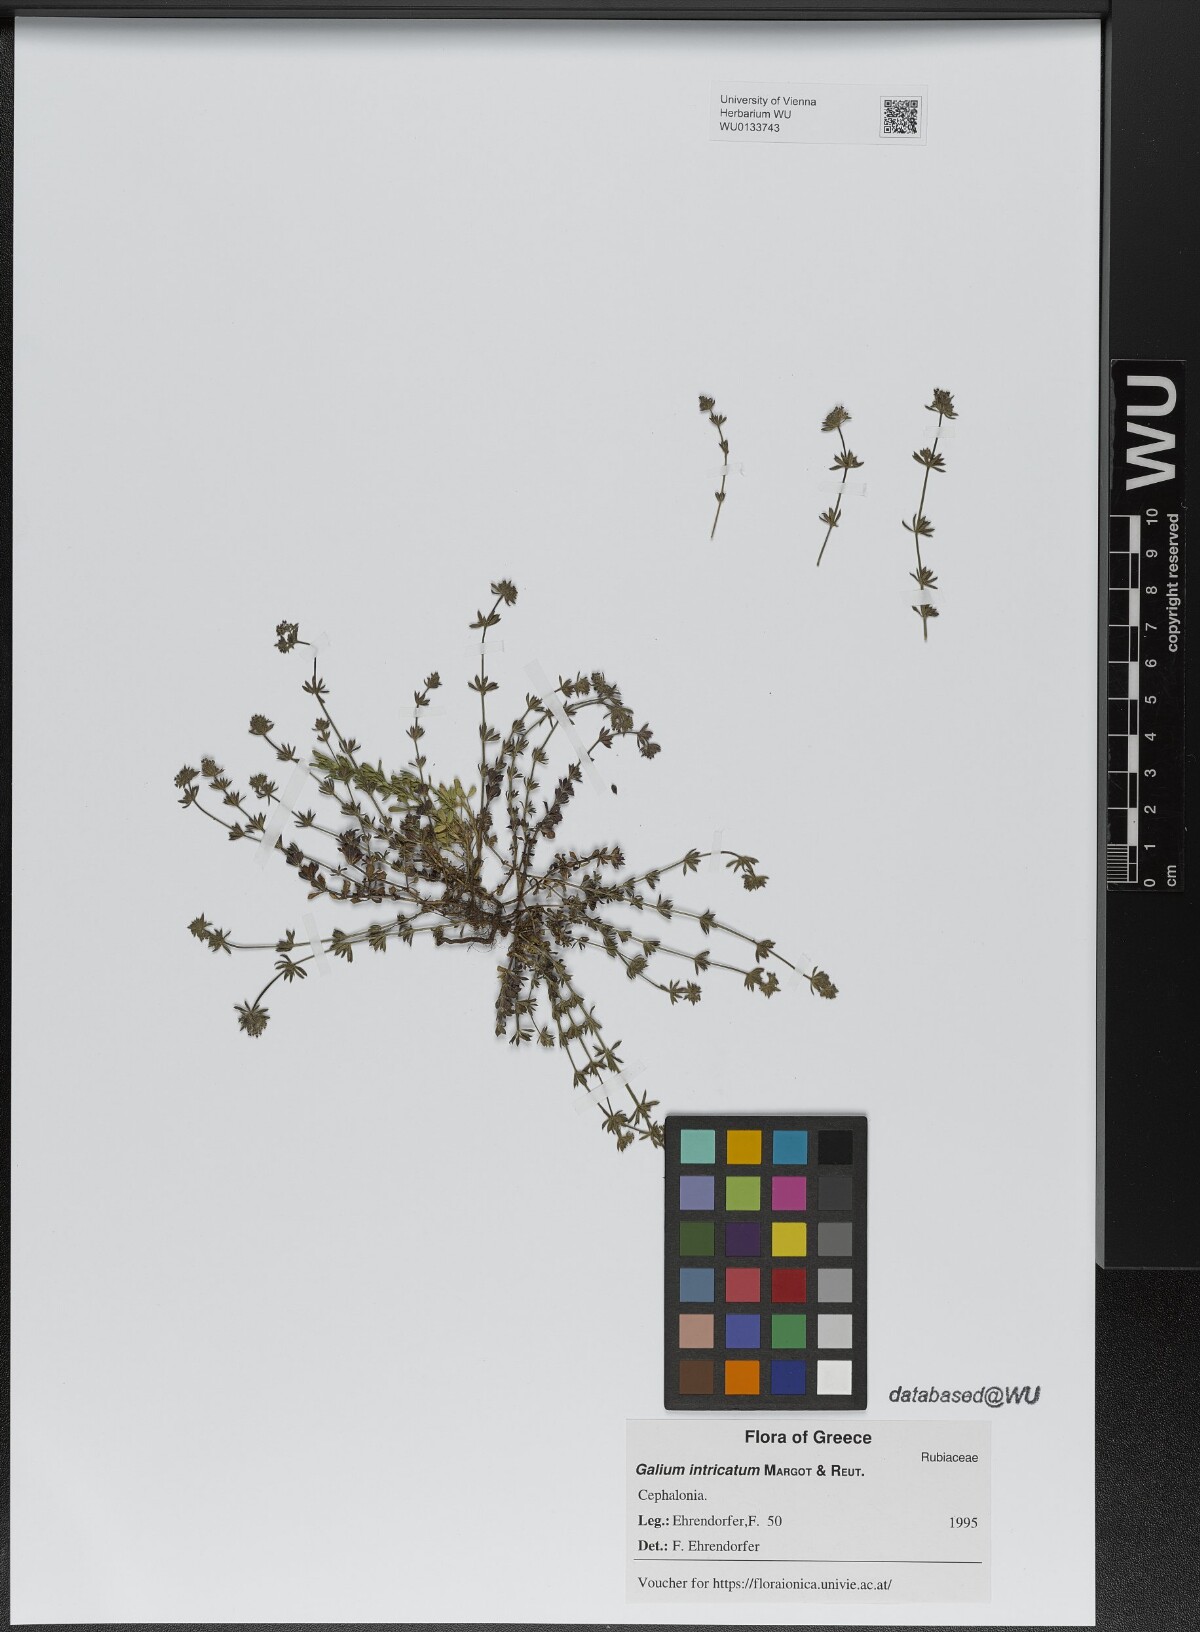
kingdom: Plantae
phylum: Tracheophyta
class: Magnoliopsida
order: Gentianales
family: Rubiaceae
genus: Galium
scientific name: Galium intricatum
